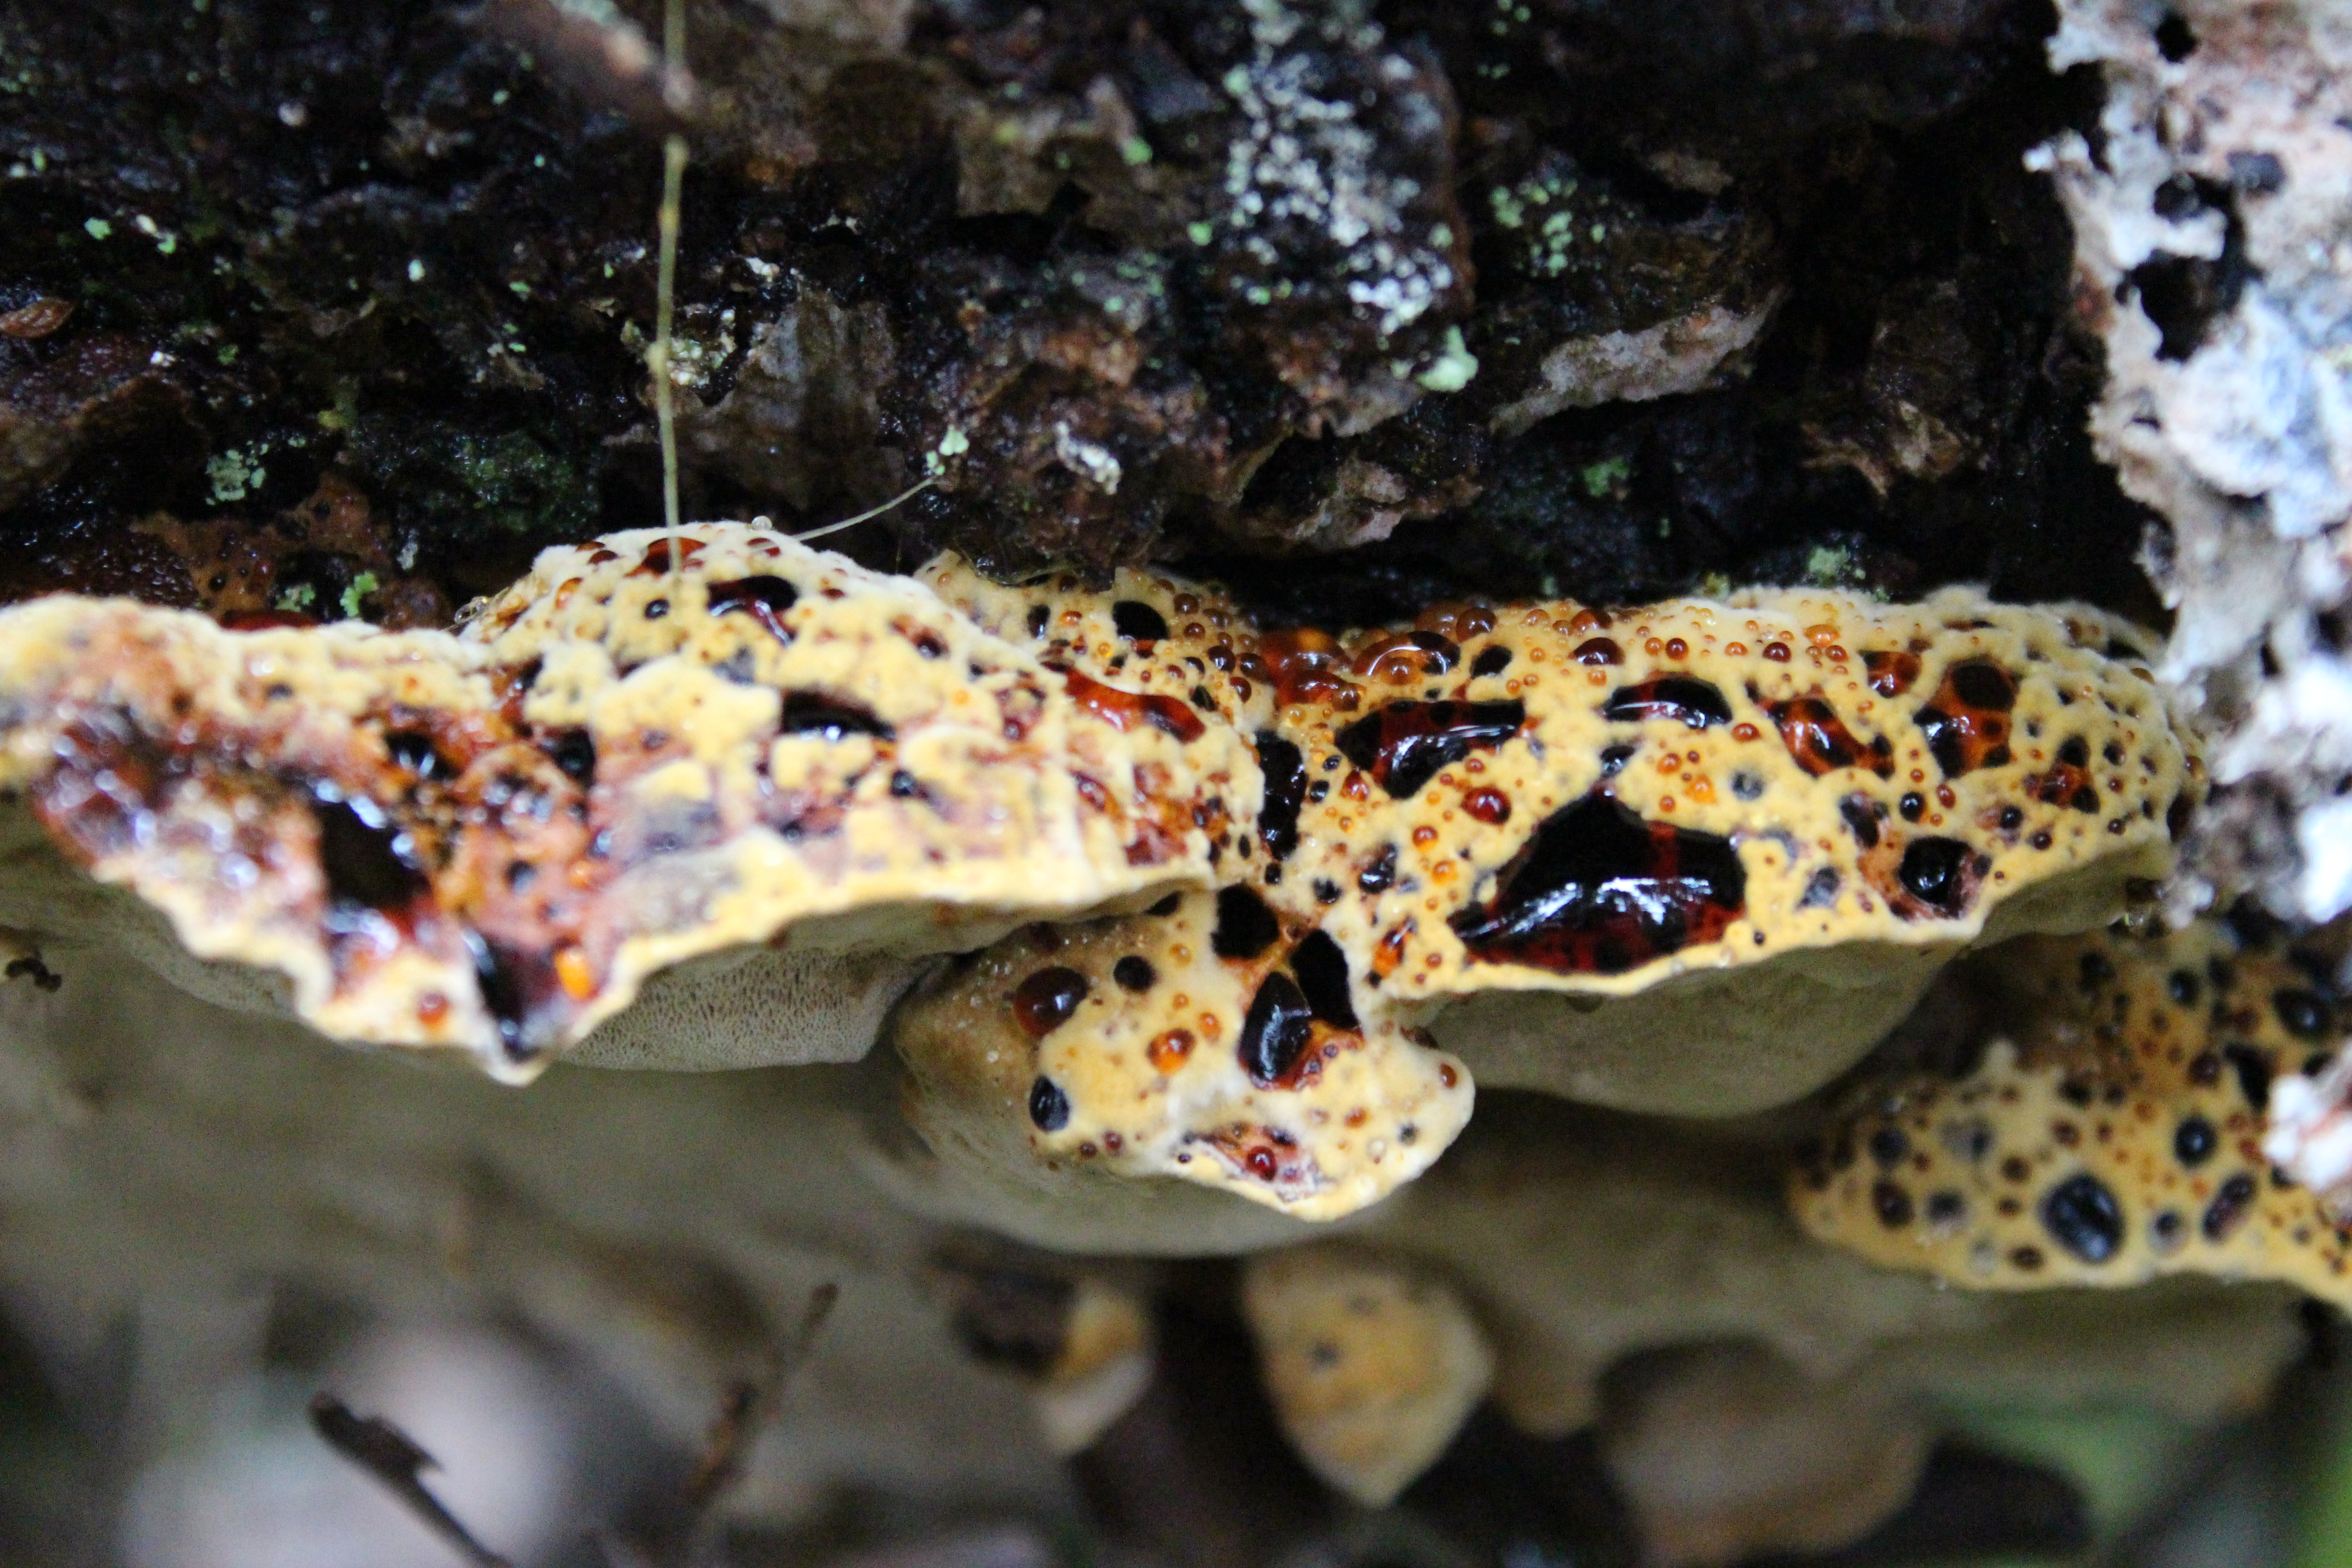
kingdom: Fungi
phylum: Basidiomycota
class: Agaricomycetes
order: Hymenochaetales
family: Hymenochaetaceae
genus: Phellopilus
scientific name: Phellopilus nigrolimitatus
